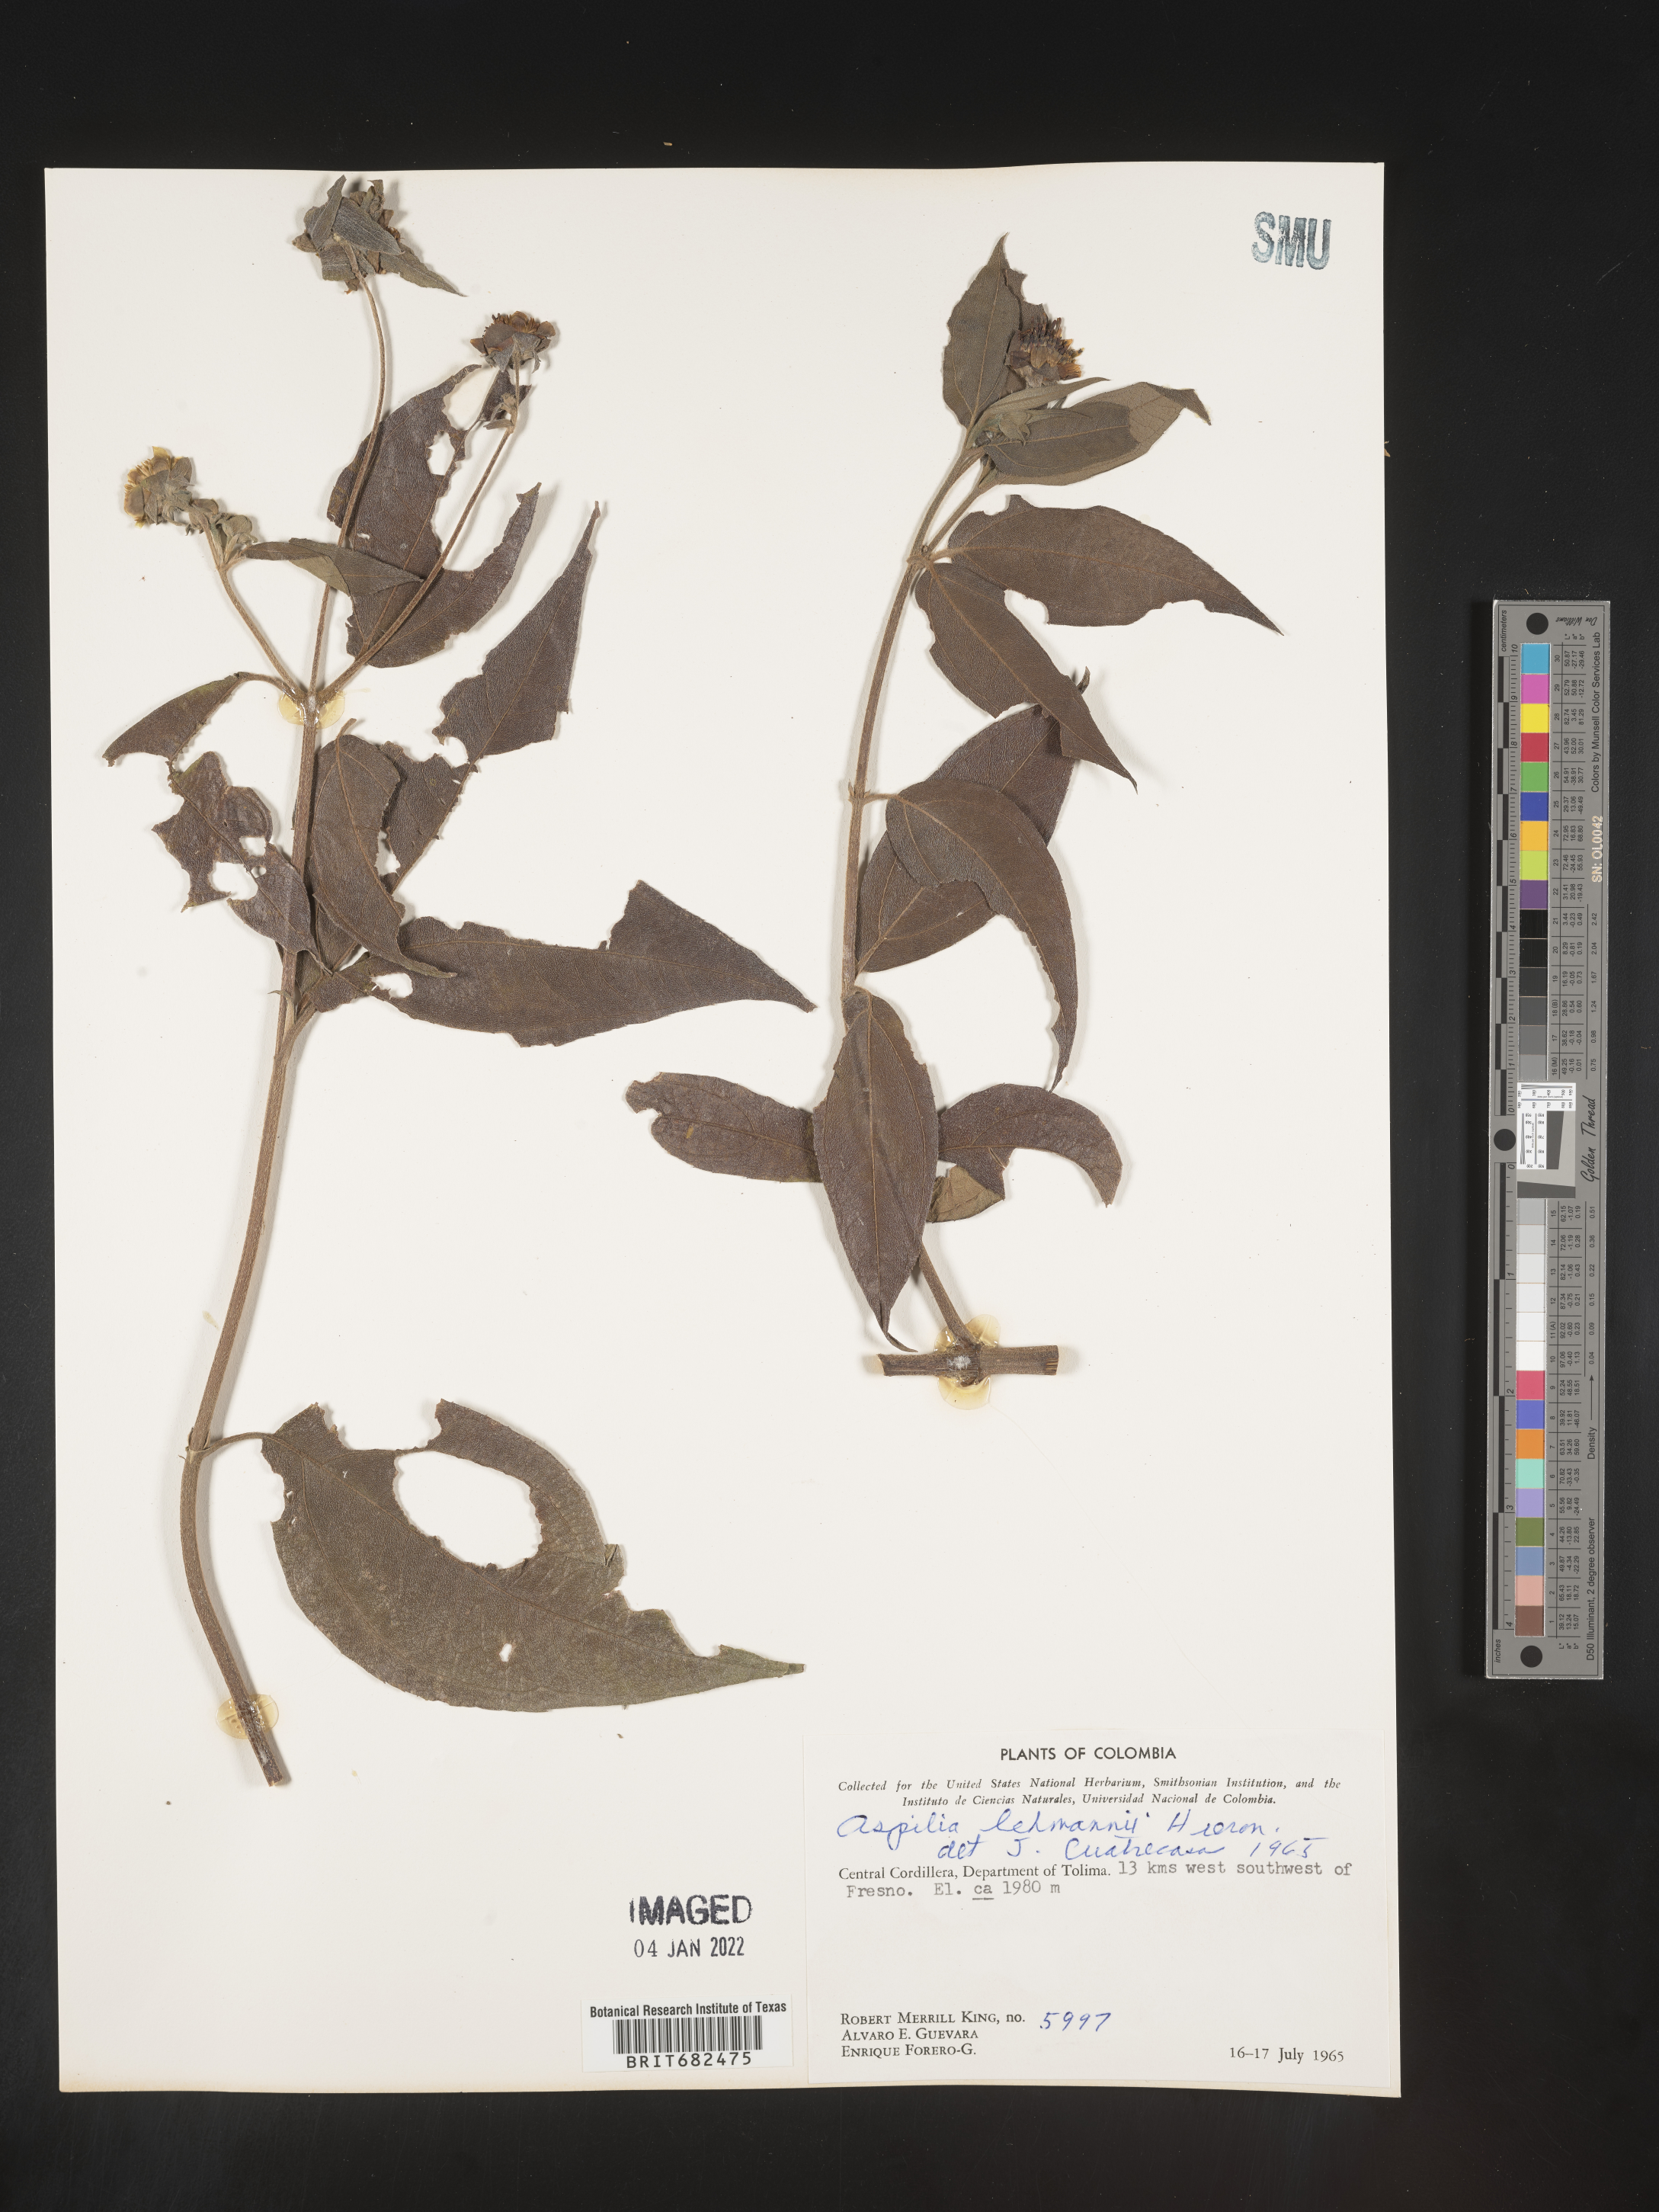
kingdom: Plantae
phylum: Tracheophyta
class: Magnoliopsida
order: Asterales
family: Asteraceae
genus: Aspilia
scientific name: Aspilia
